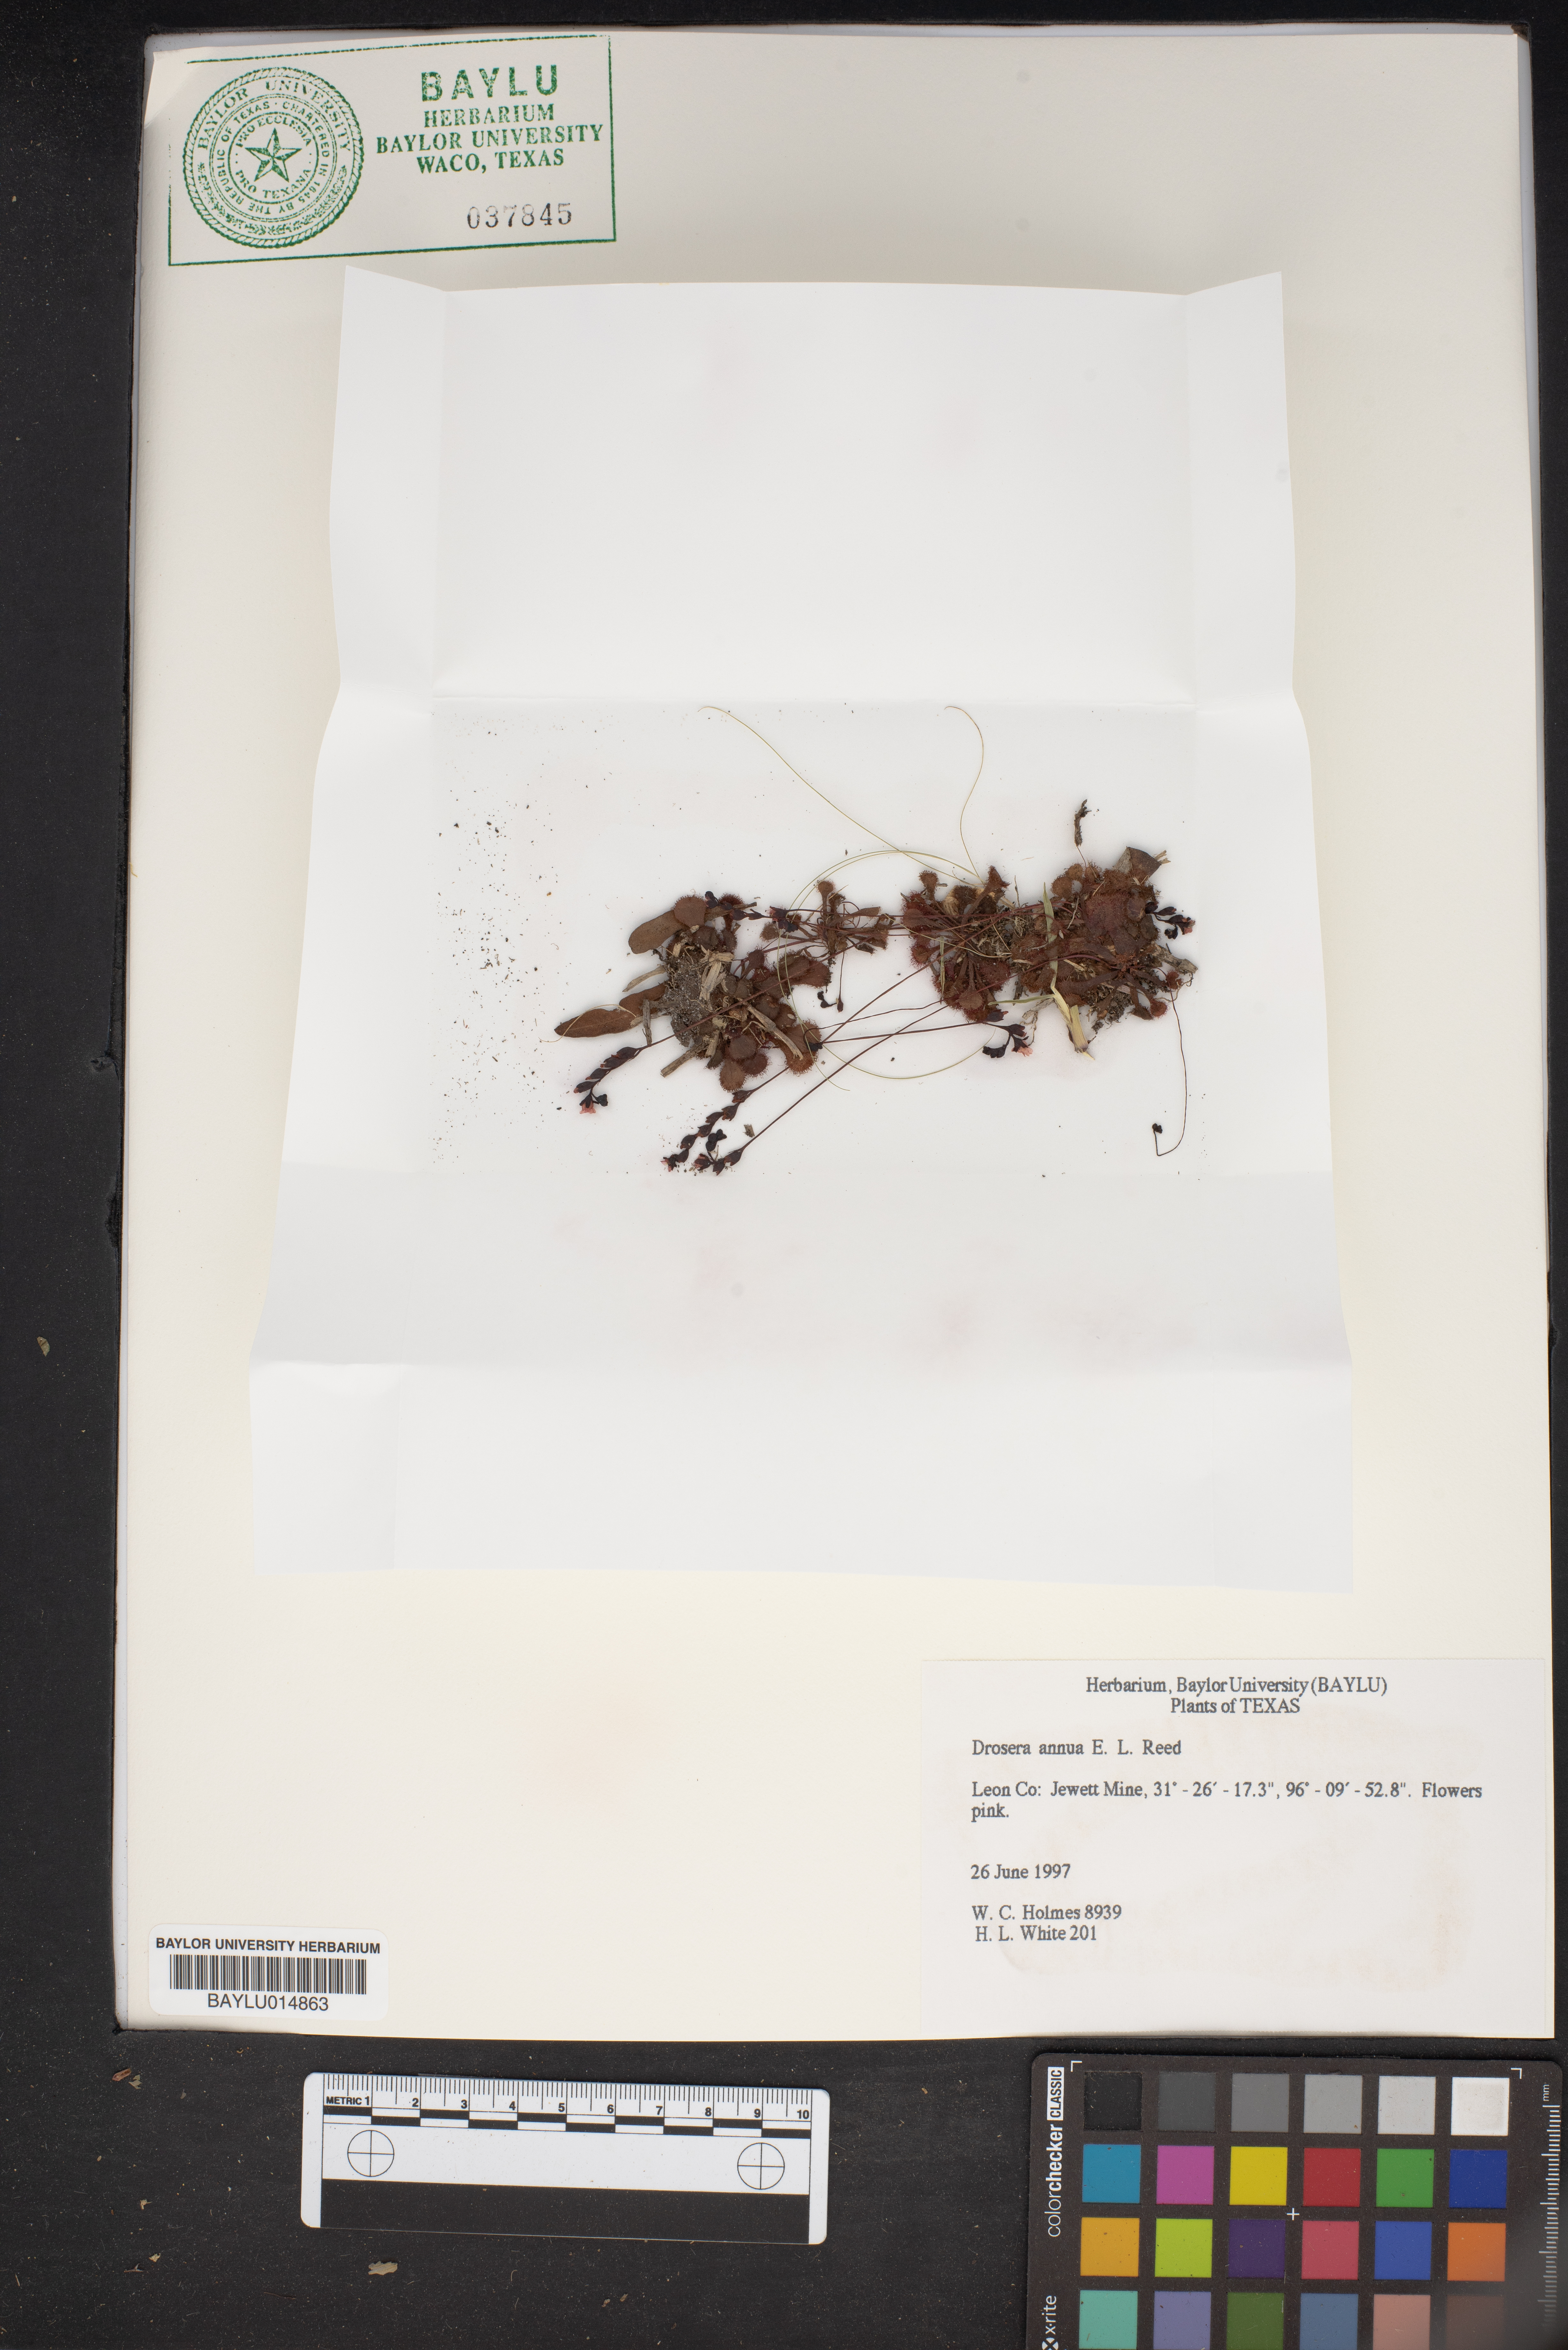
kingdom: Plantae
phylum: Tracheophyta
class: Magnoliopsida
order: Caryophyllales
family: Droseraceae
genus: Drosera
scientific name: Drosera brevifolia
